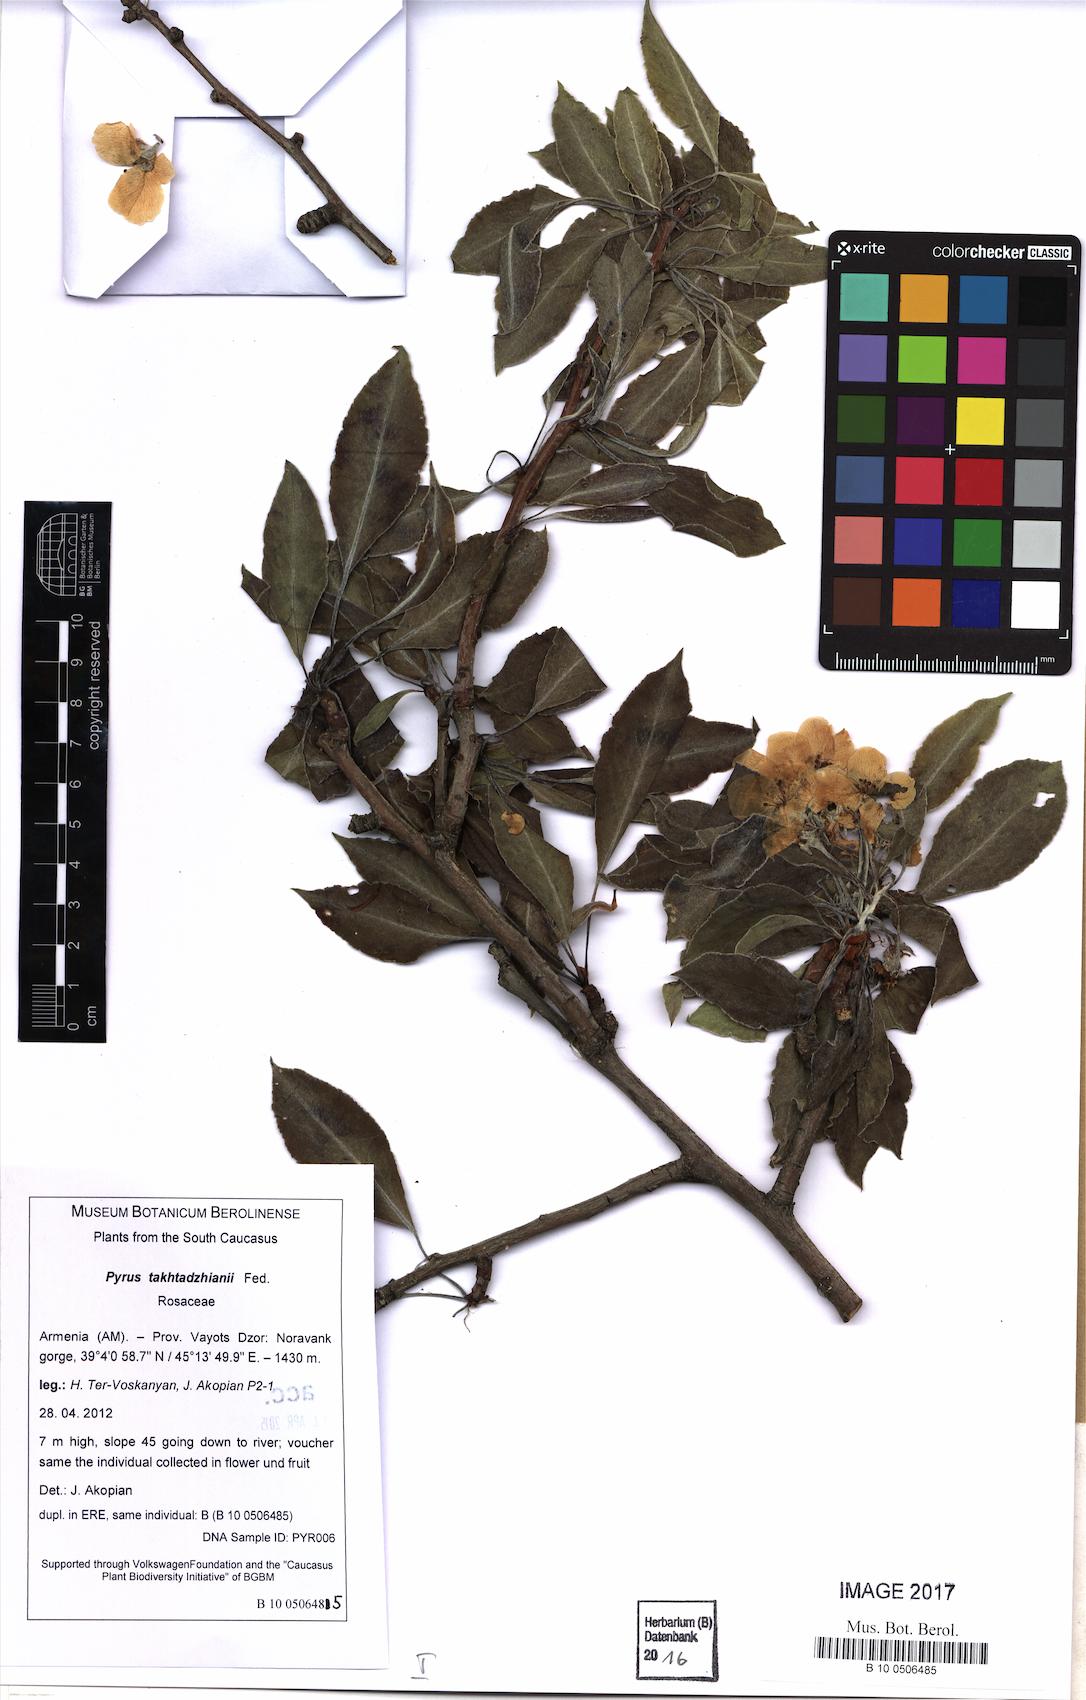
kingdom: Plantae
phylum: Tracheophyta
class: Magnoliopsida
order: Rosales
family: Rosaceae
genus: Pyrus
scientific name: Pyrus
